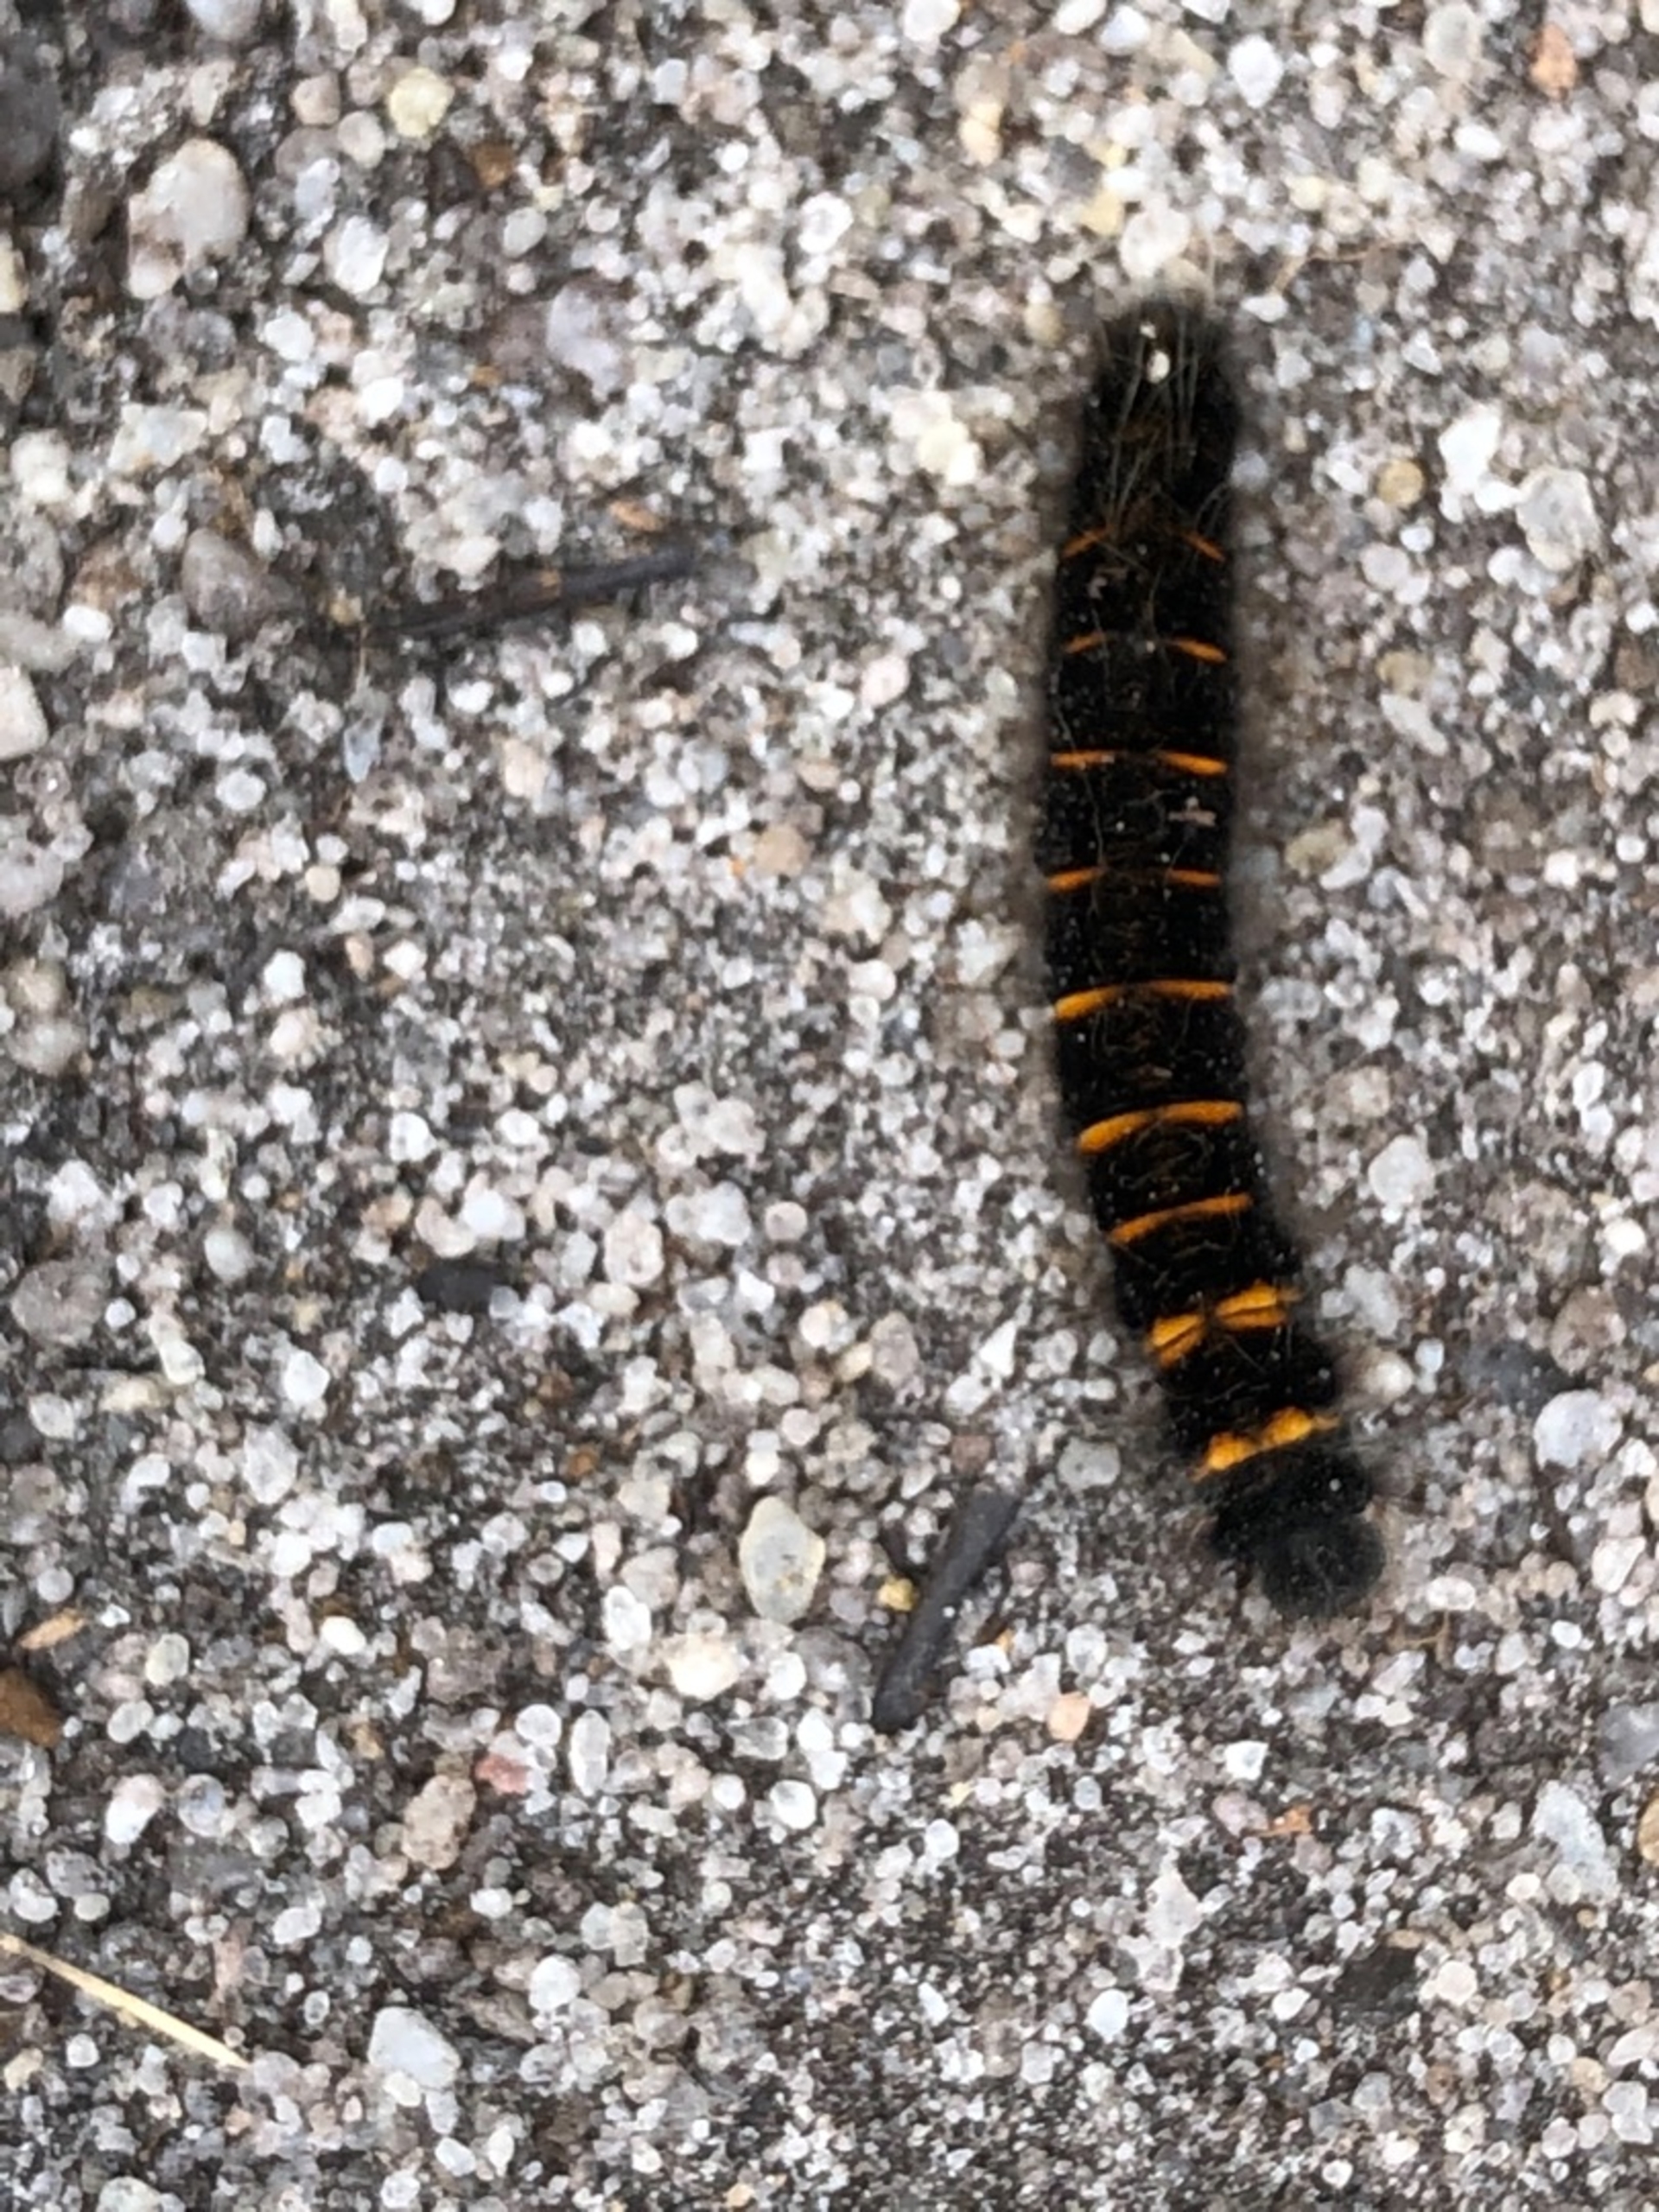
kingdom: Animalia
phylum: Arthropoda
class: Insecta
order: Lepidoptera
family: Lasiocampidae
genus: Macrothylacia
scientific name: Macrothylacia rubi
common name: Brombærspinder
